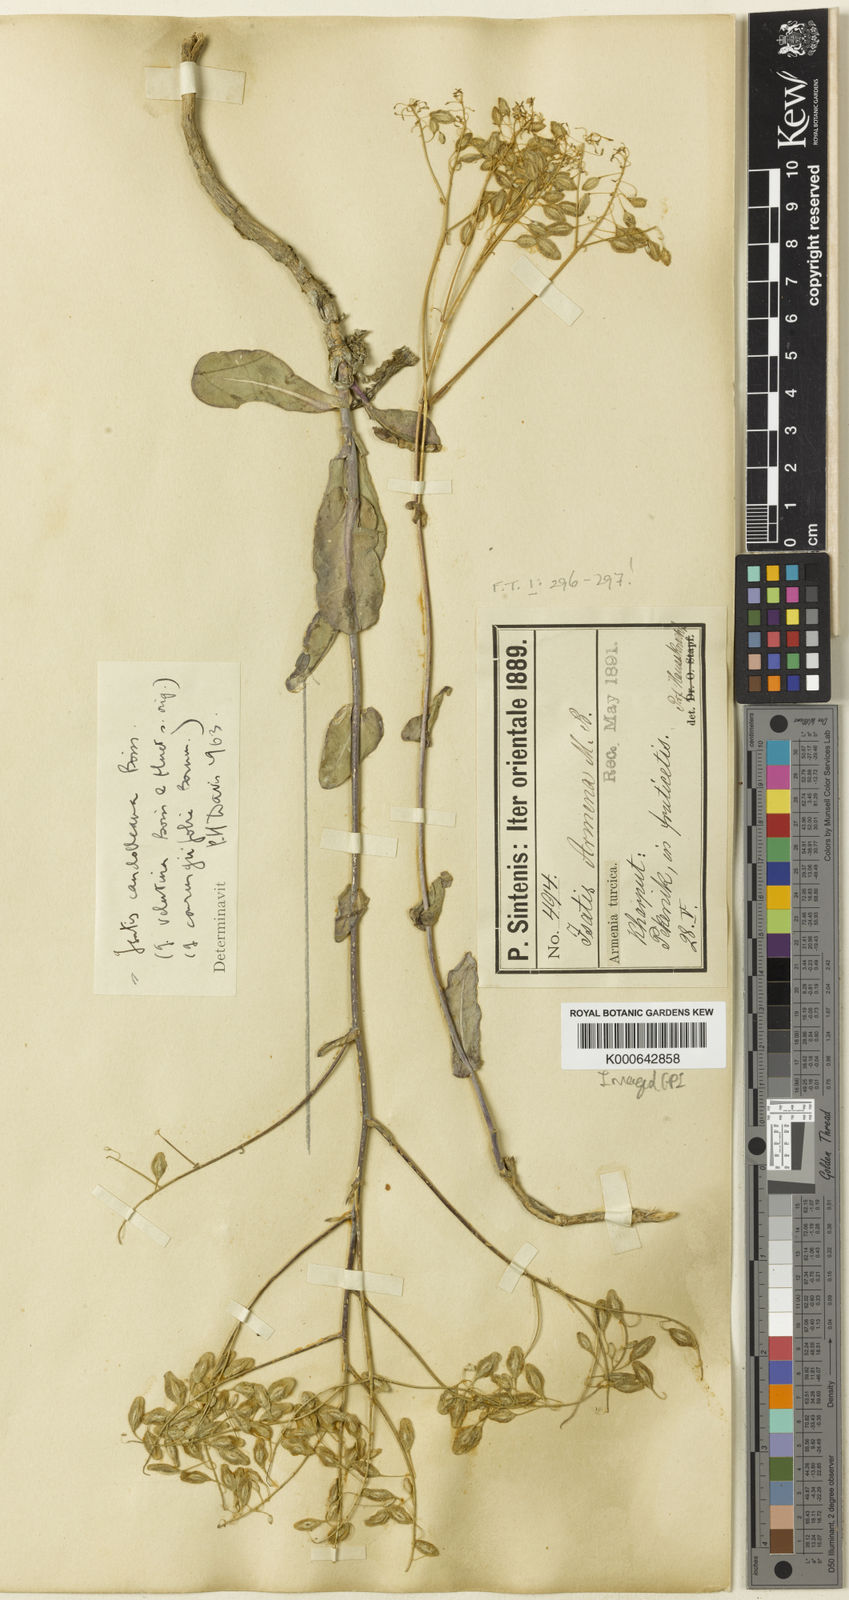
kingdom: Plantae
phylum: Tracheophyta
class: Magnoliopsida
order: Brassicales
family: Brassicaceae
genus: Isatis
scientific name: Isatis candolleana
